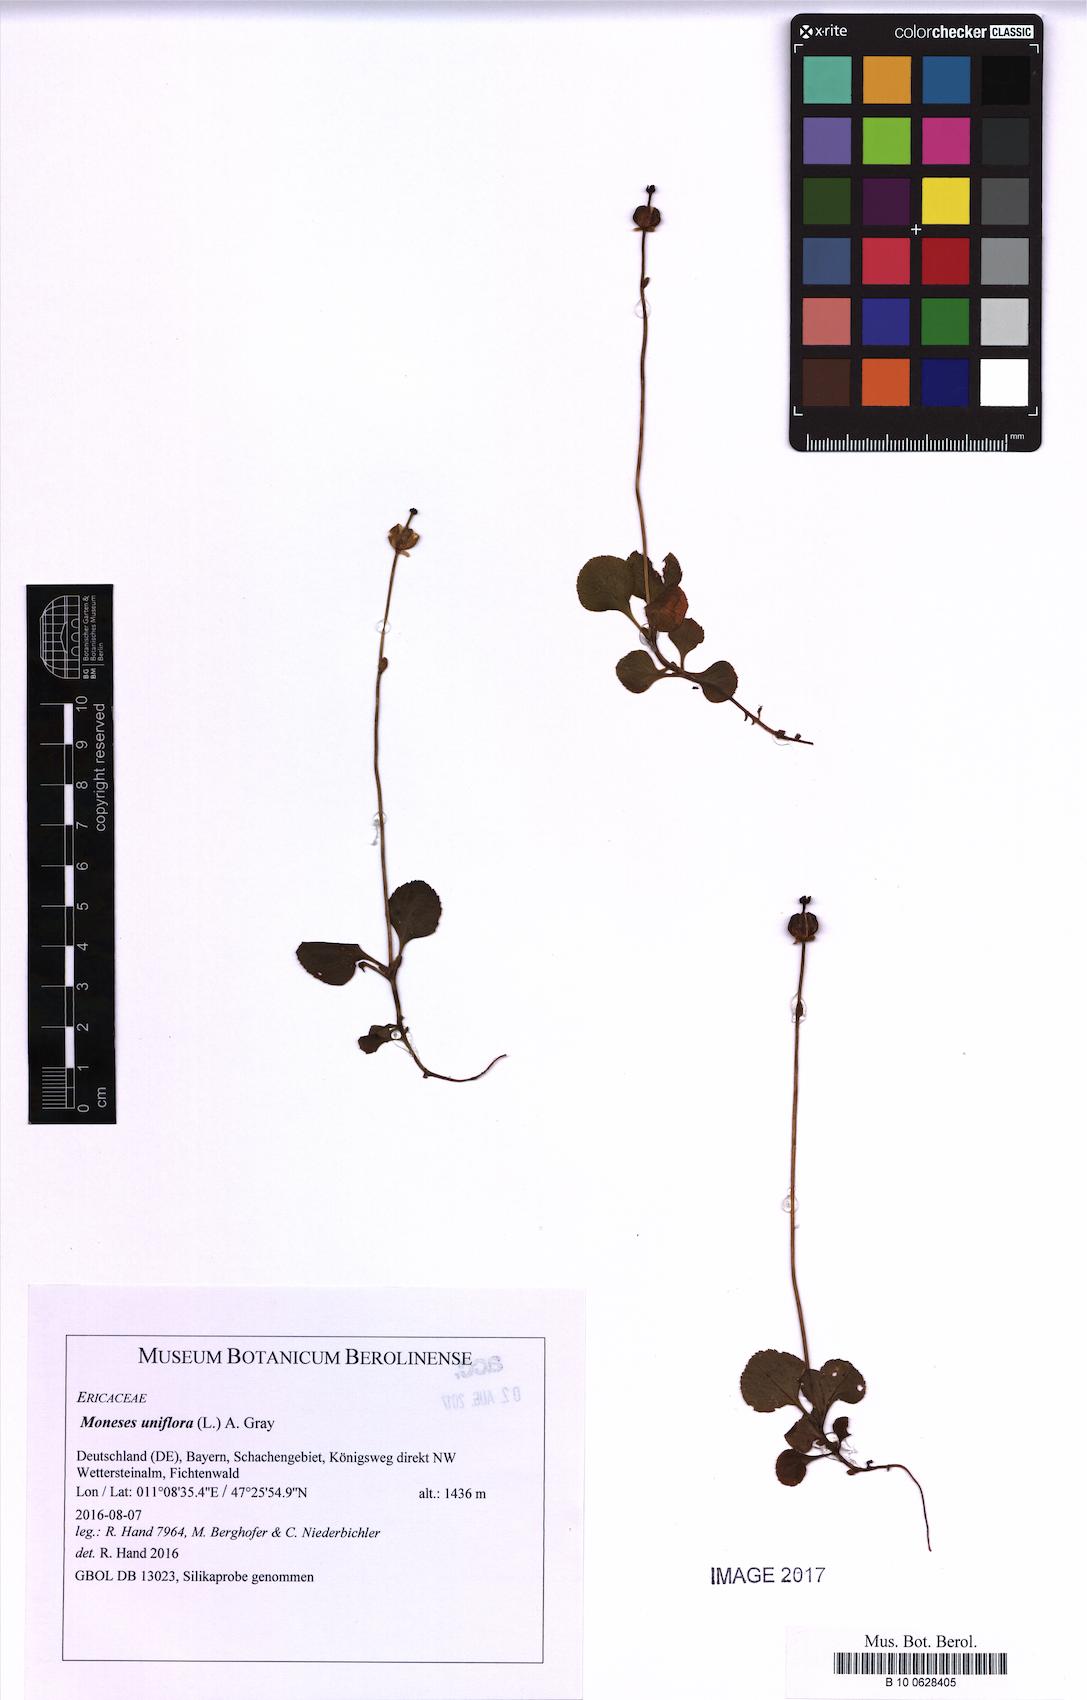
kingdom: Plantae
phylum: Tracheophyta
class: Magnoliopsida
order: Ericales
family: Ericaceae
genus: Moneses
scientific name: Moneses uniflora
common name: One-flowered wintergreen
